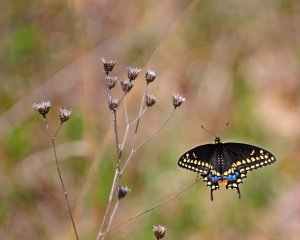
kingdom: Animalia
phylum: Arthropoda
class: Insecta
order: Lepidoptera
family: Papilionidae
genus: Papilio
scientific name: Papilio polyxenes
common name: Black Swallowtail
